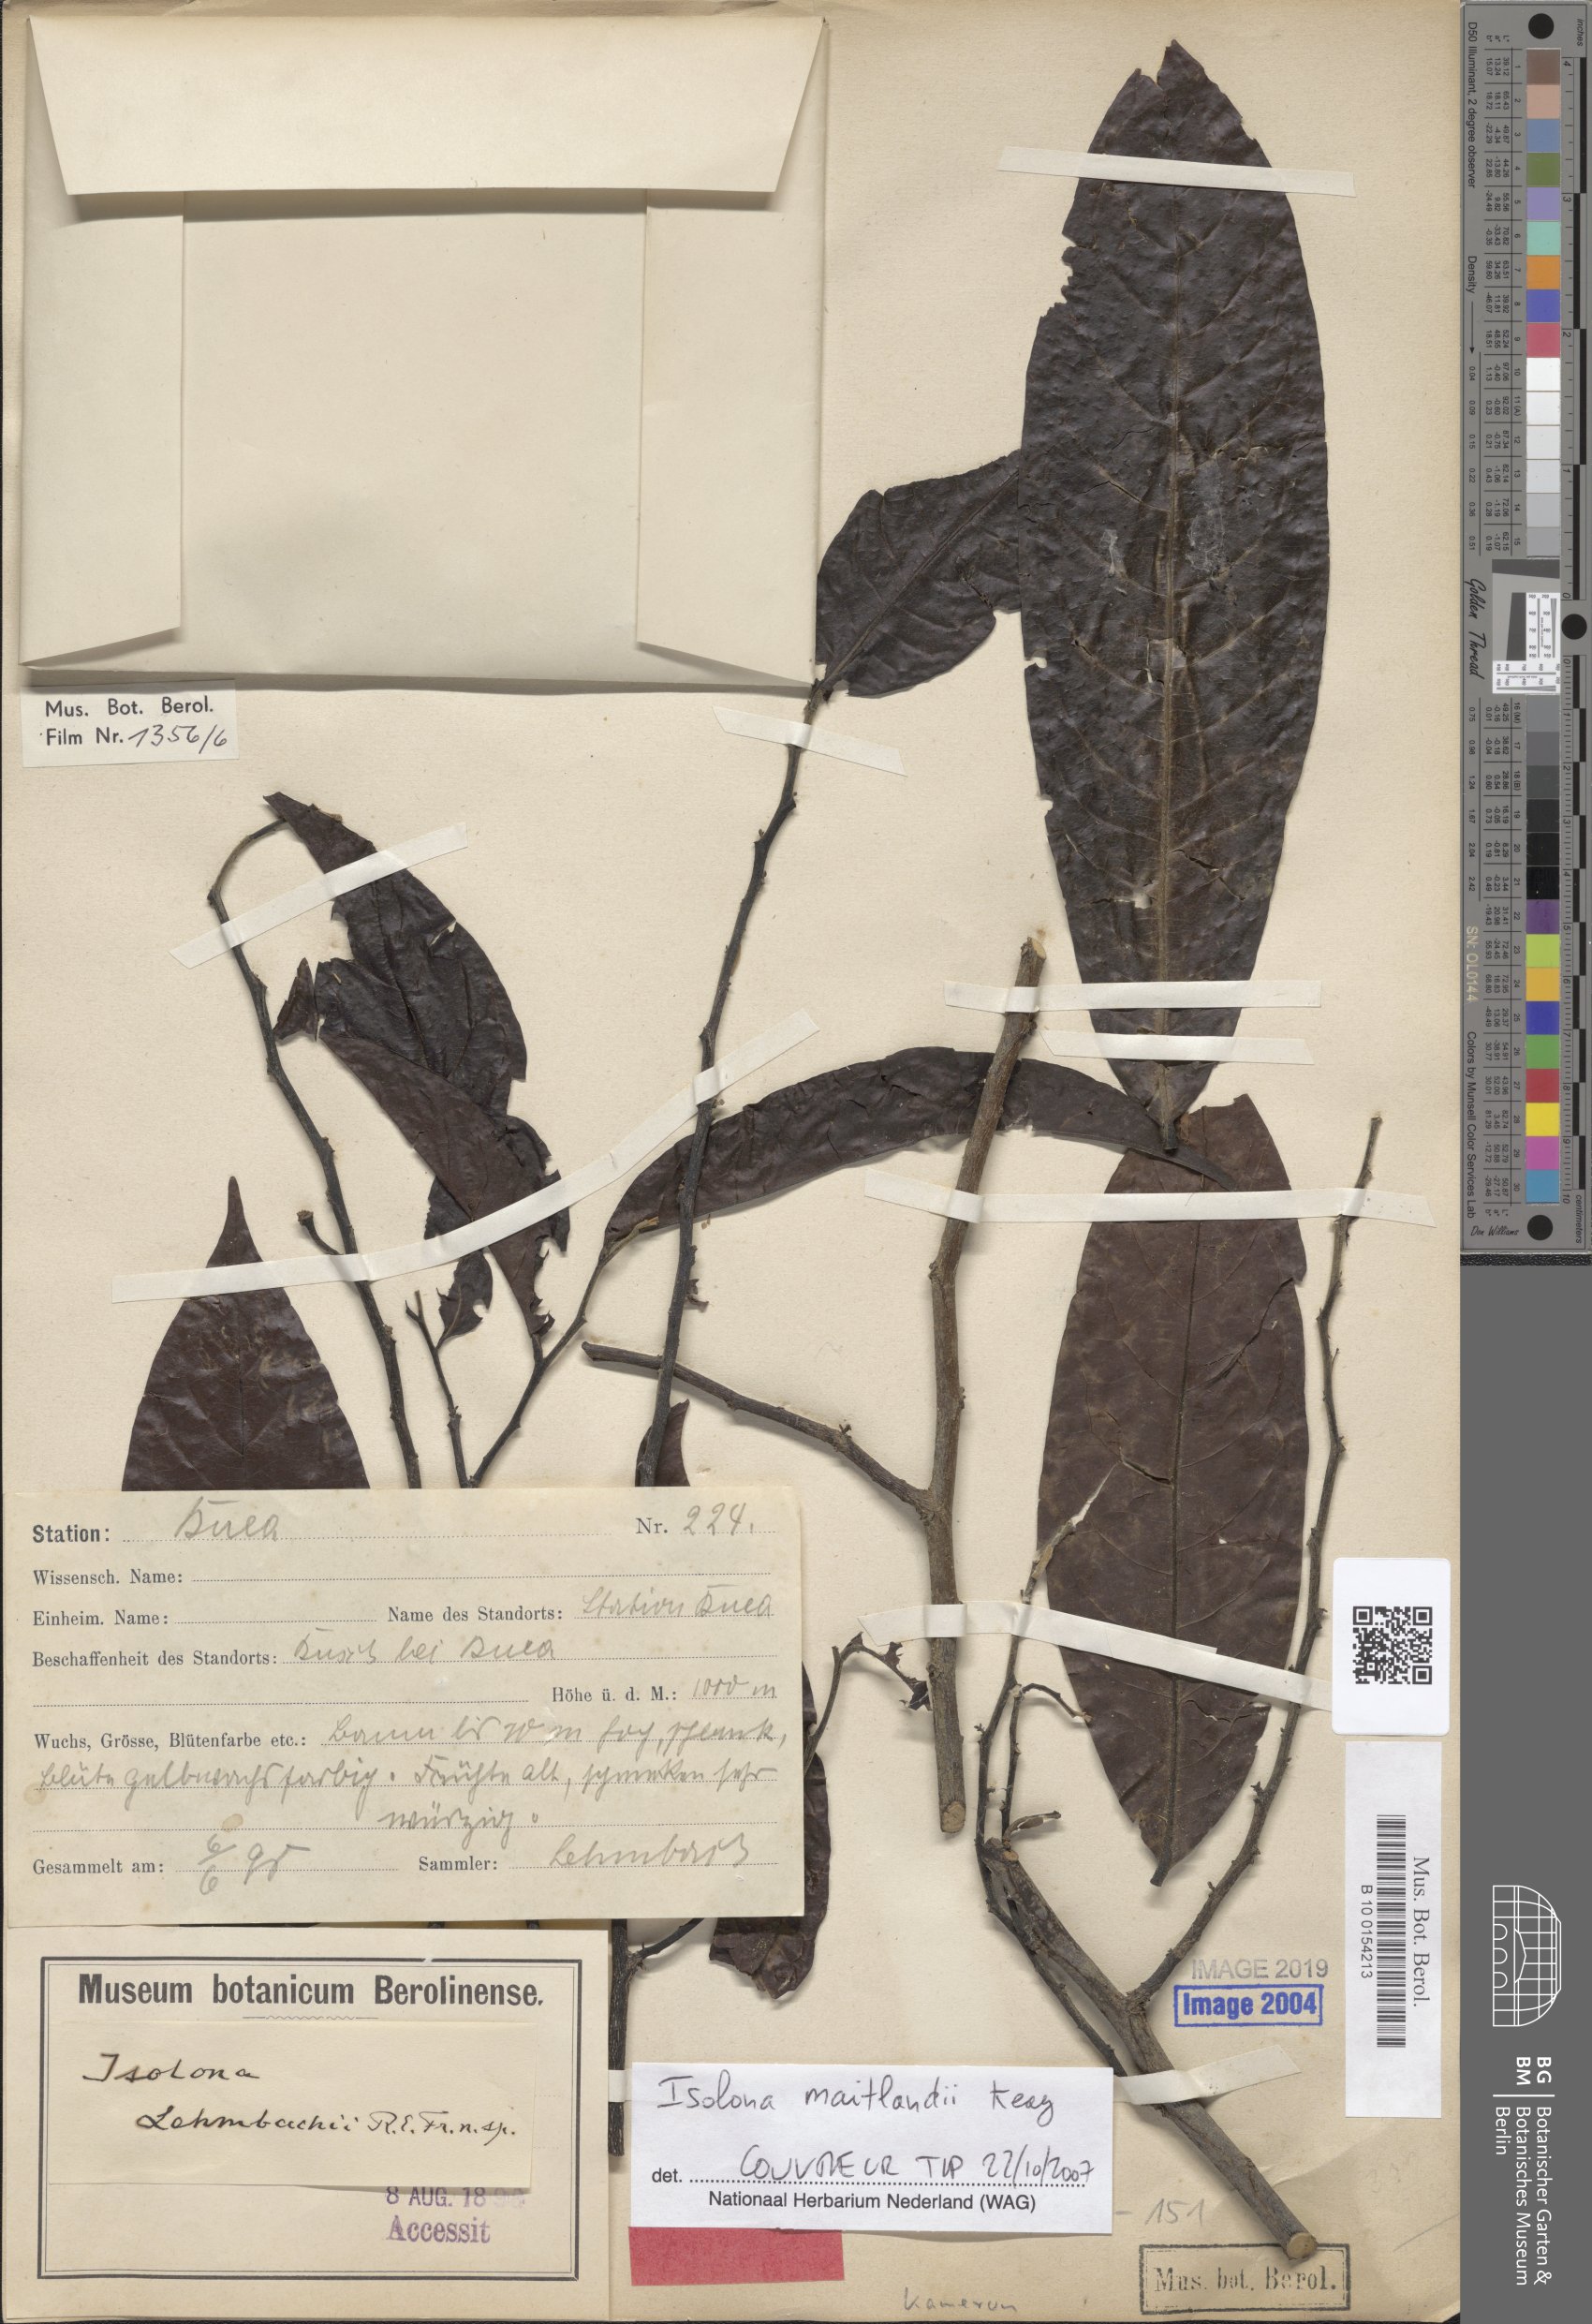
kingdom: Plantae
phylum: Tracheophyta
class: Magnoliopsida
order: Magnoliales
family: Annonaceae
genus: Isolona
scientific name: Isolona congolana
